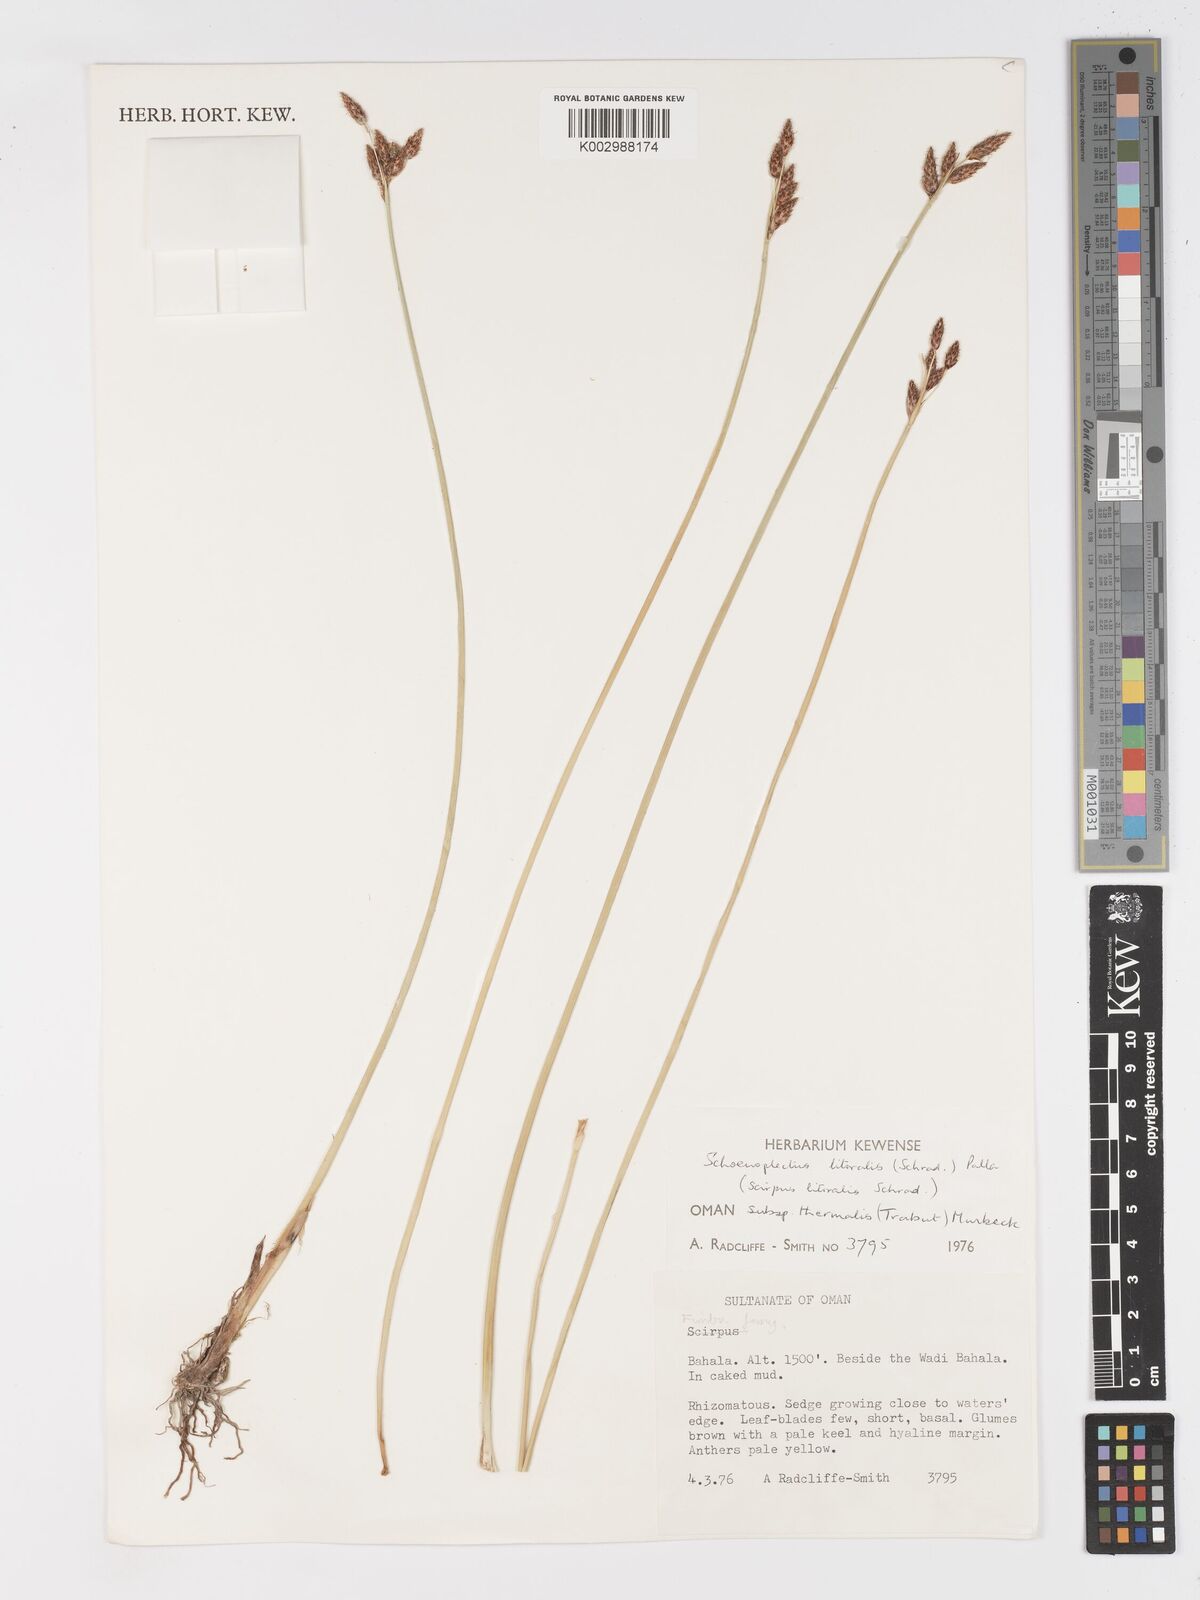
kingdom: Plantae
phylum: Tracheophyta
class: Liliopsida
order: Poales
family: Cyperaceae
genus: Schoenoplectus
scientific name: Schoenoplectus litoralis
